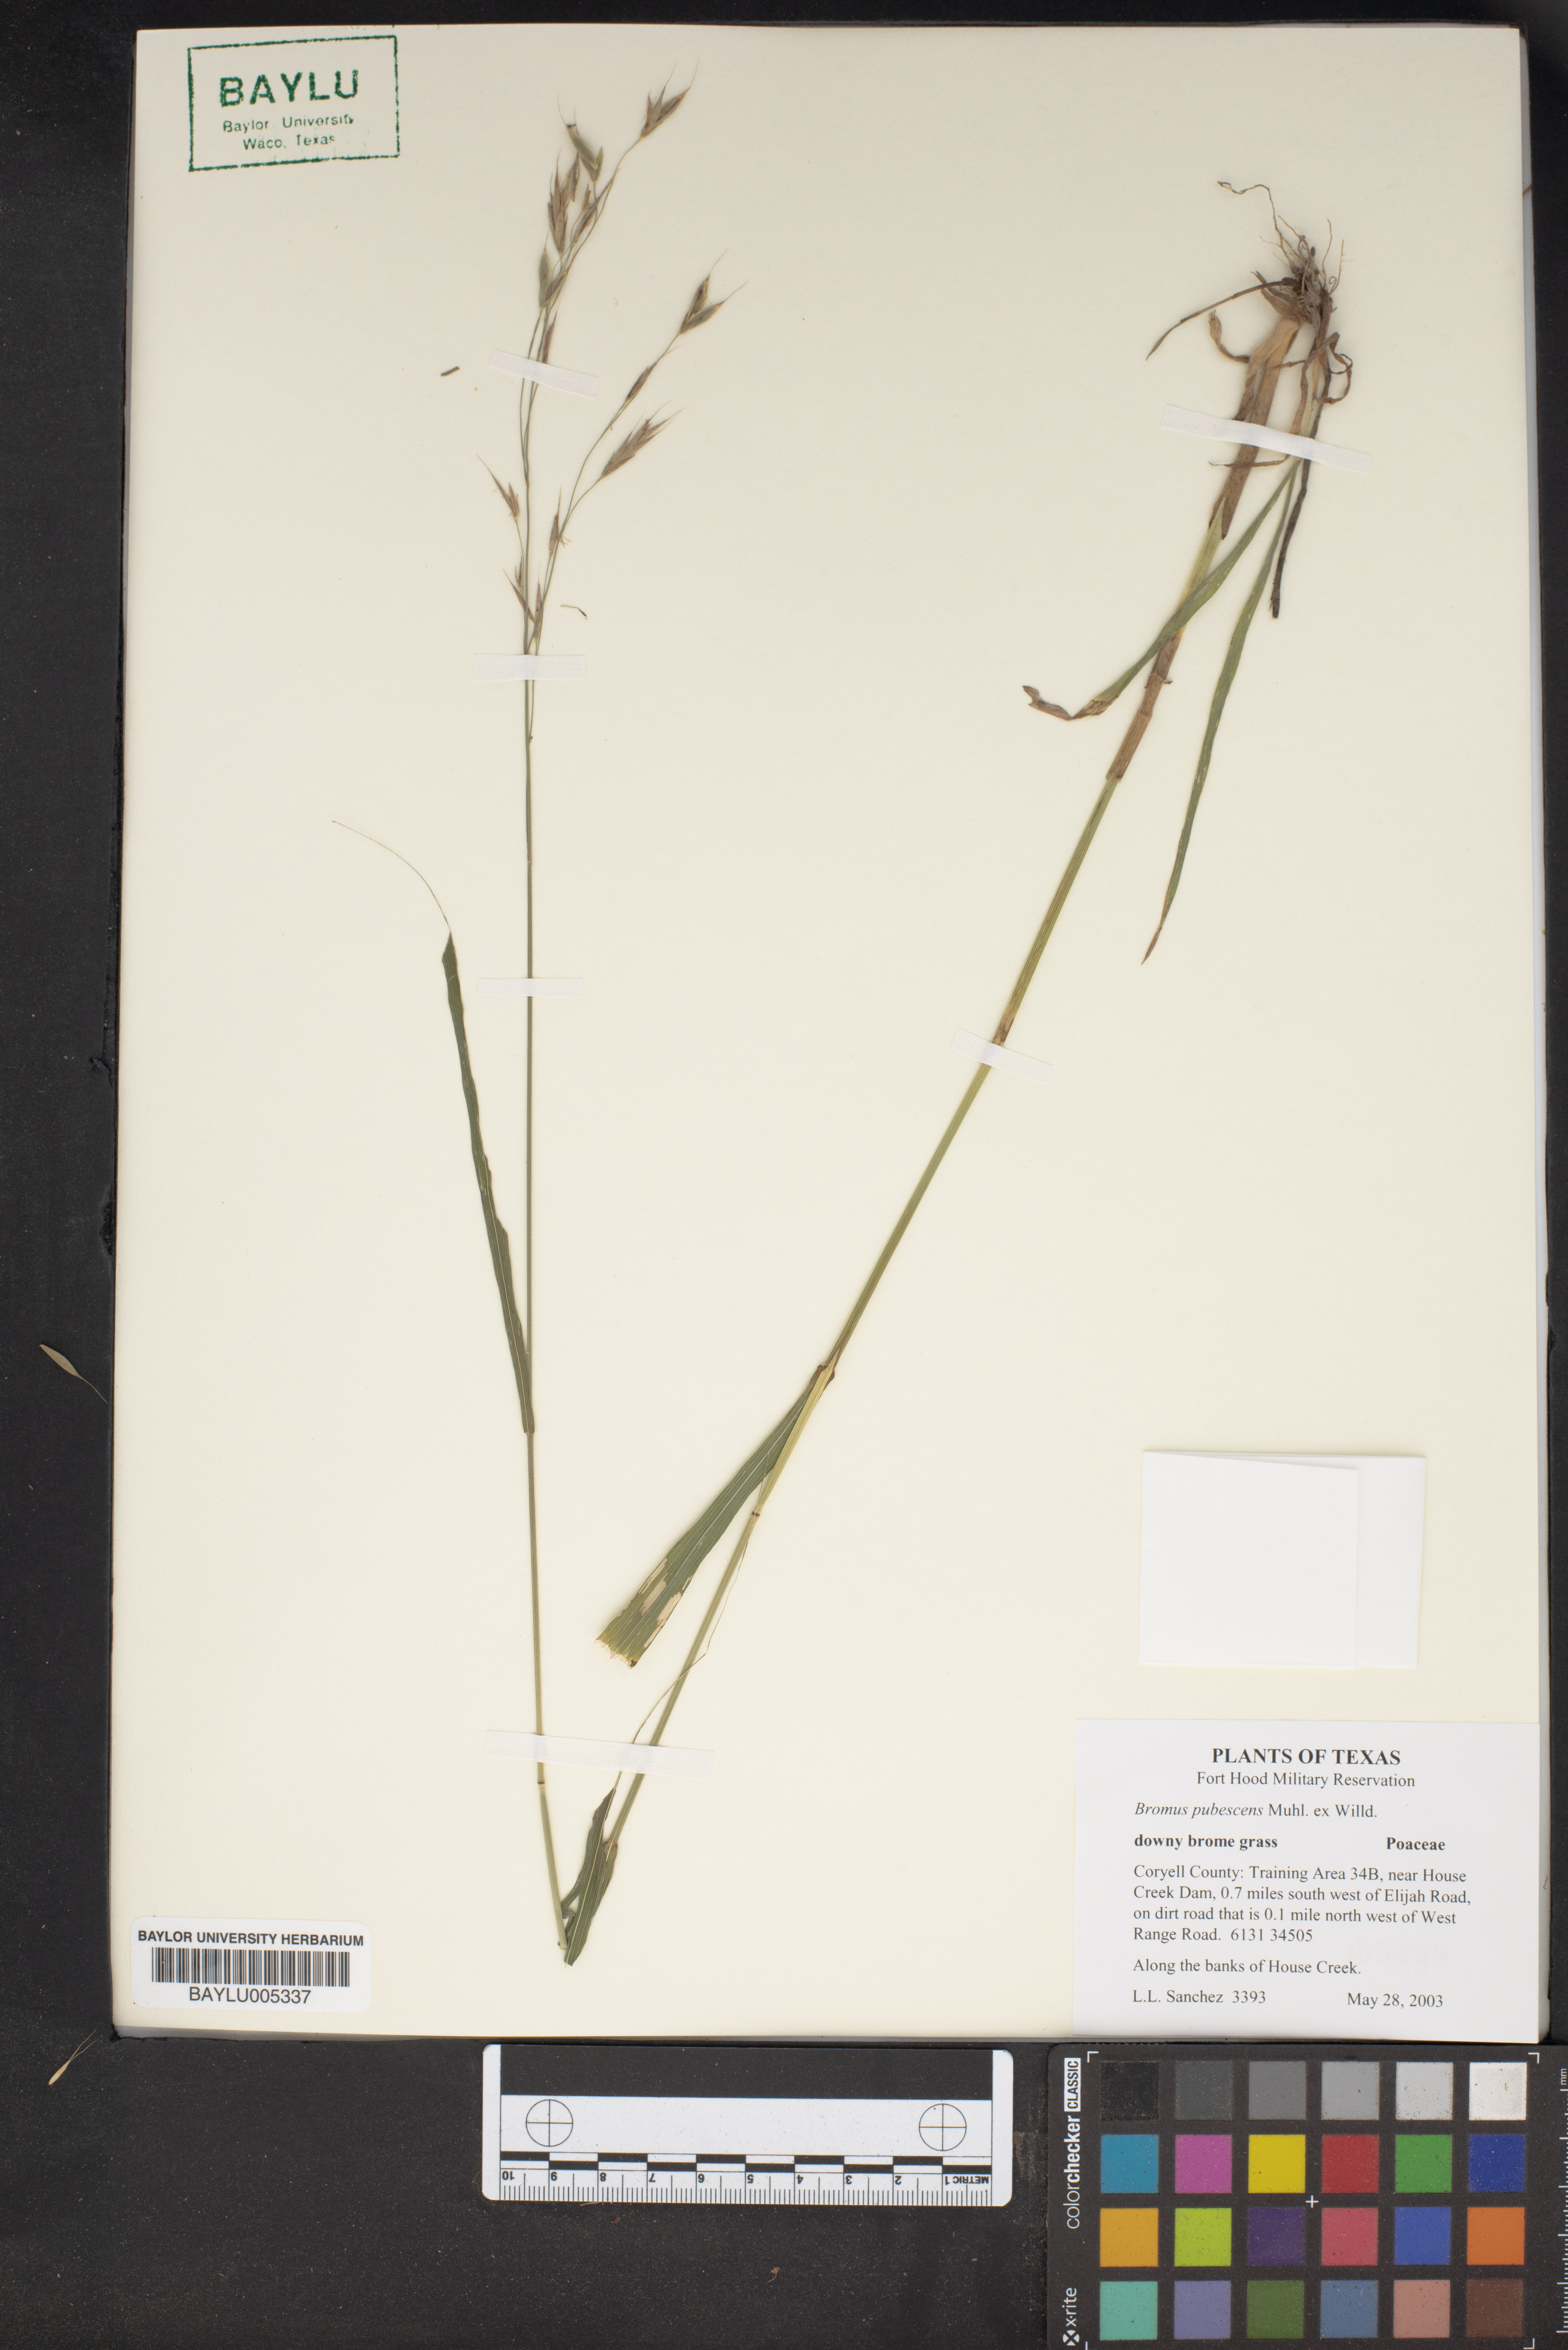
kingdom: Plantae
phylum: Tracheophyta
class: Liliopsida
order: Poales
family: Poaceae
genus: Bromus
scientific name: Bromus pubescens
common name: Hairy wood brome grass
